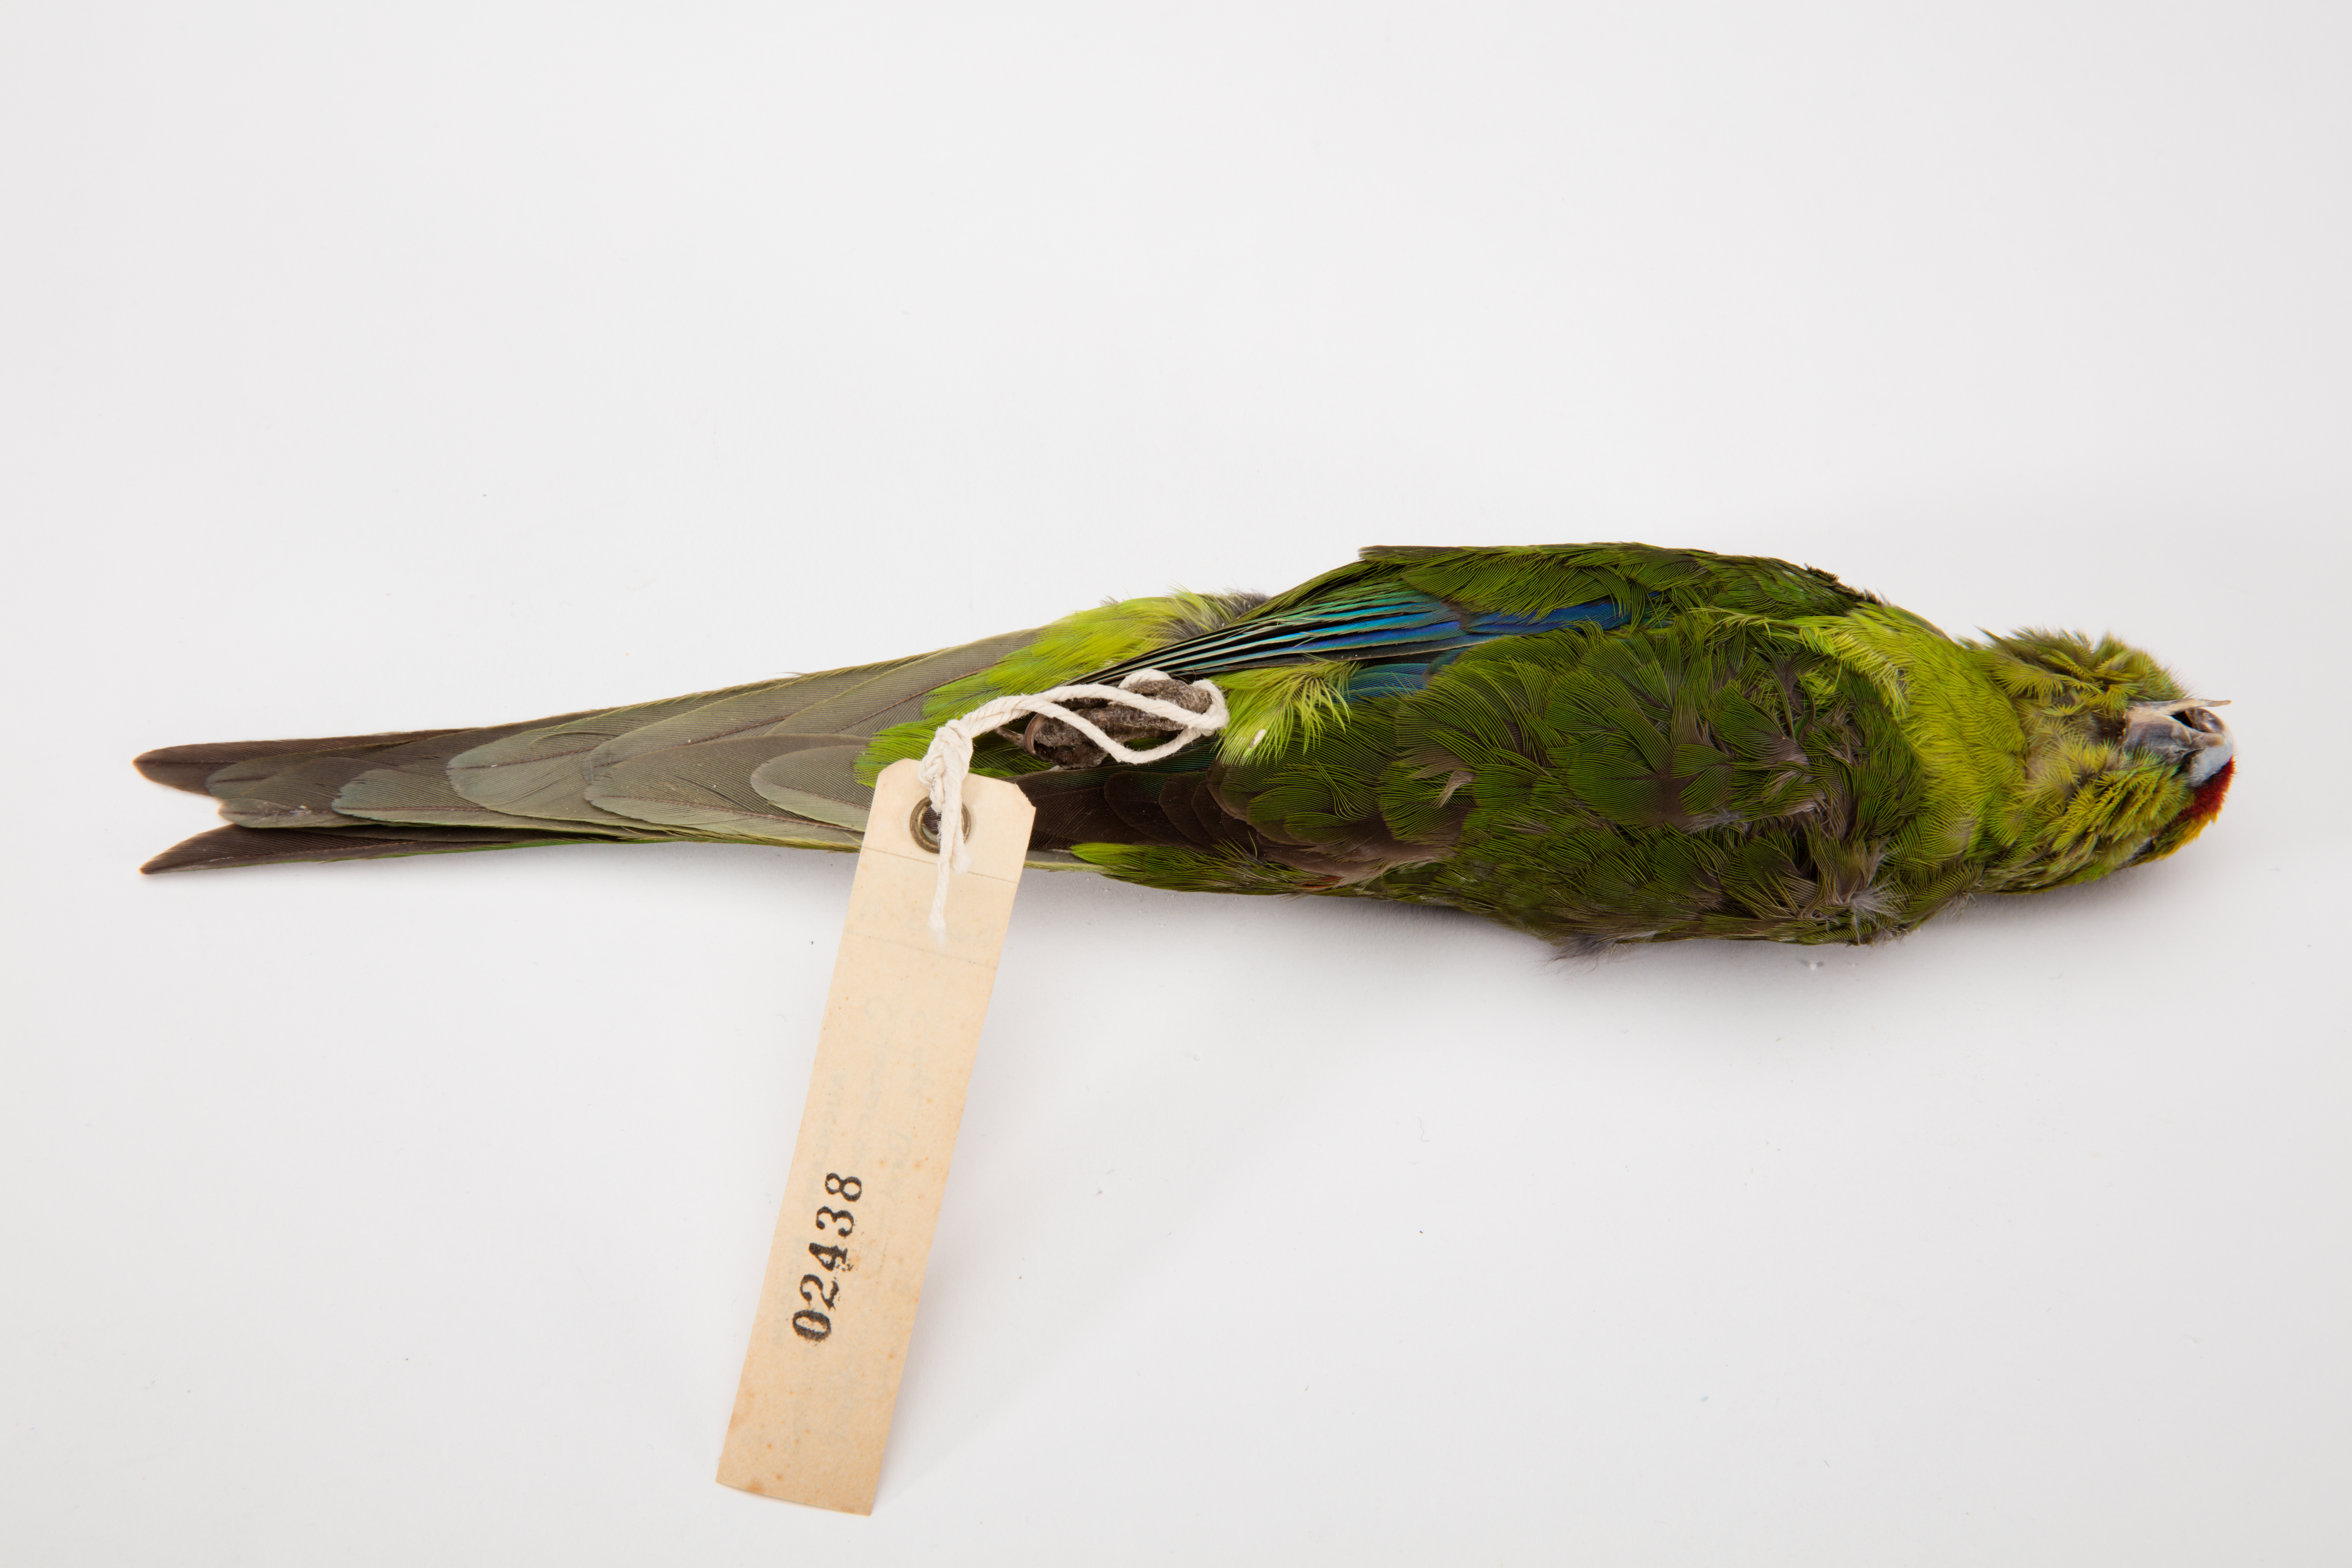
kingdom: Animalia
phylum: Chordata
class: Aves
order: Psittaciformes
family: Psittacidae
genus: Cyanoramphus
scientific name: Cyanoramphus auriceps
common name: Yellow-crowned parakeet
